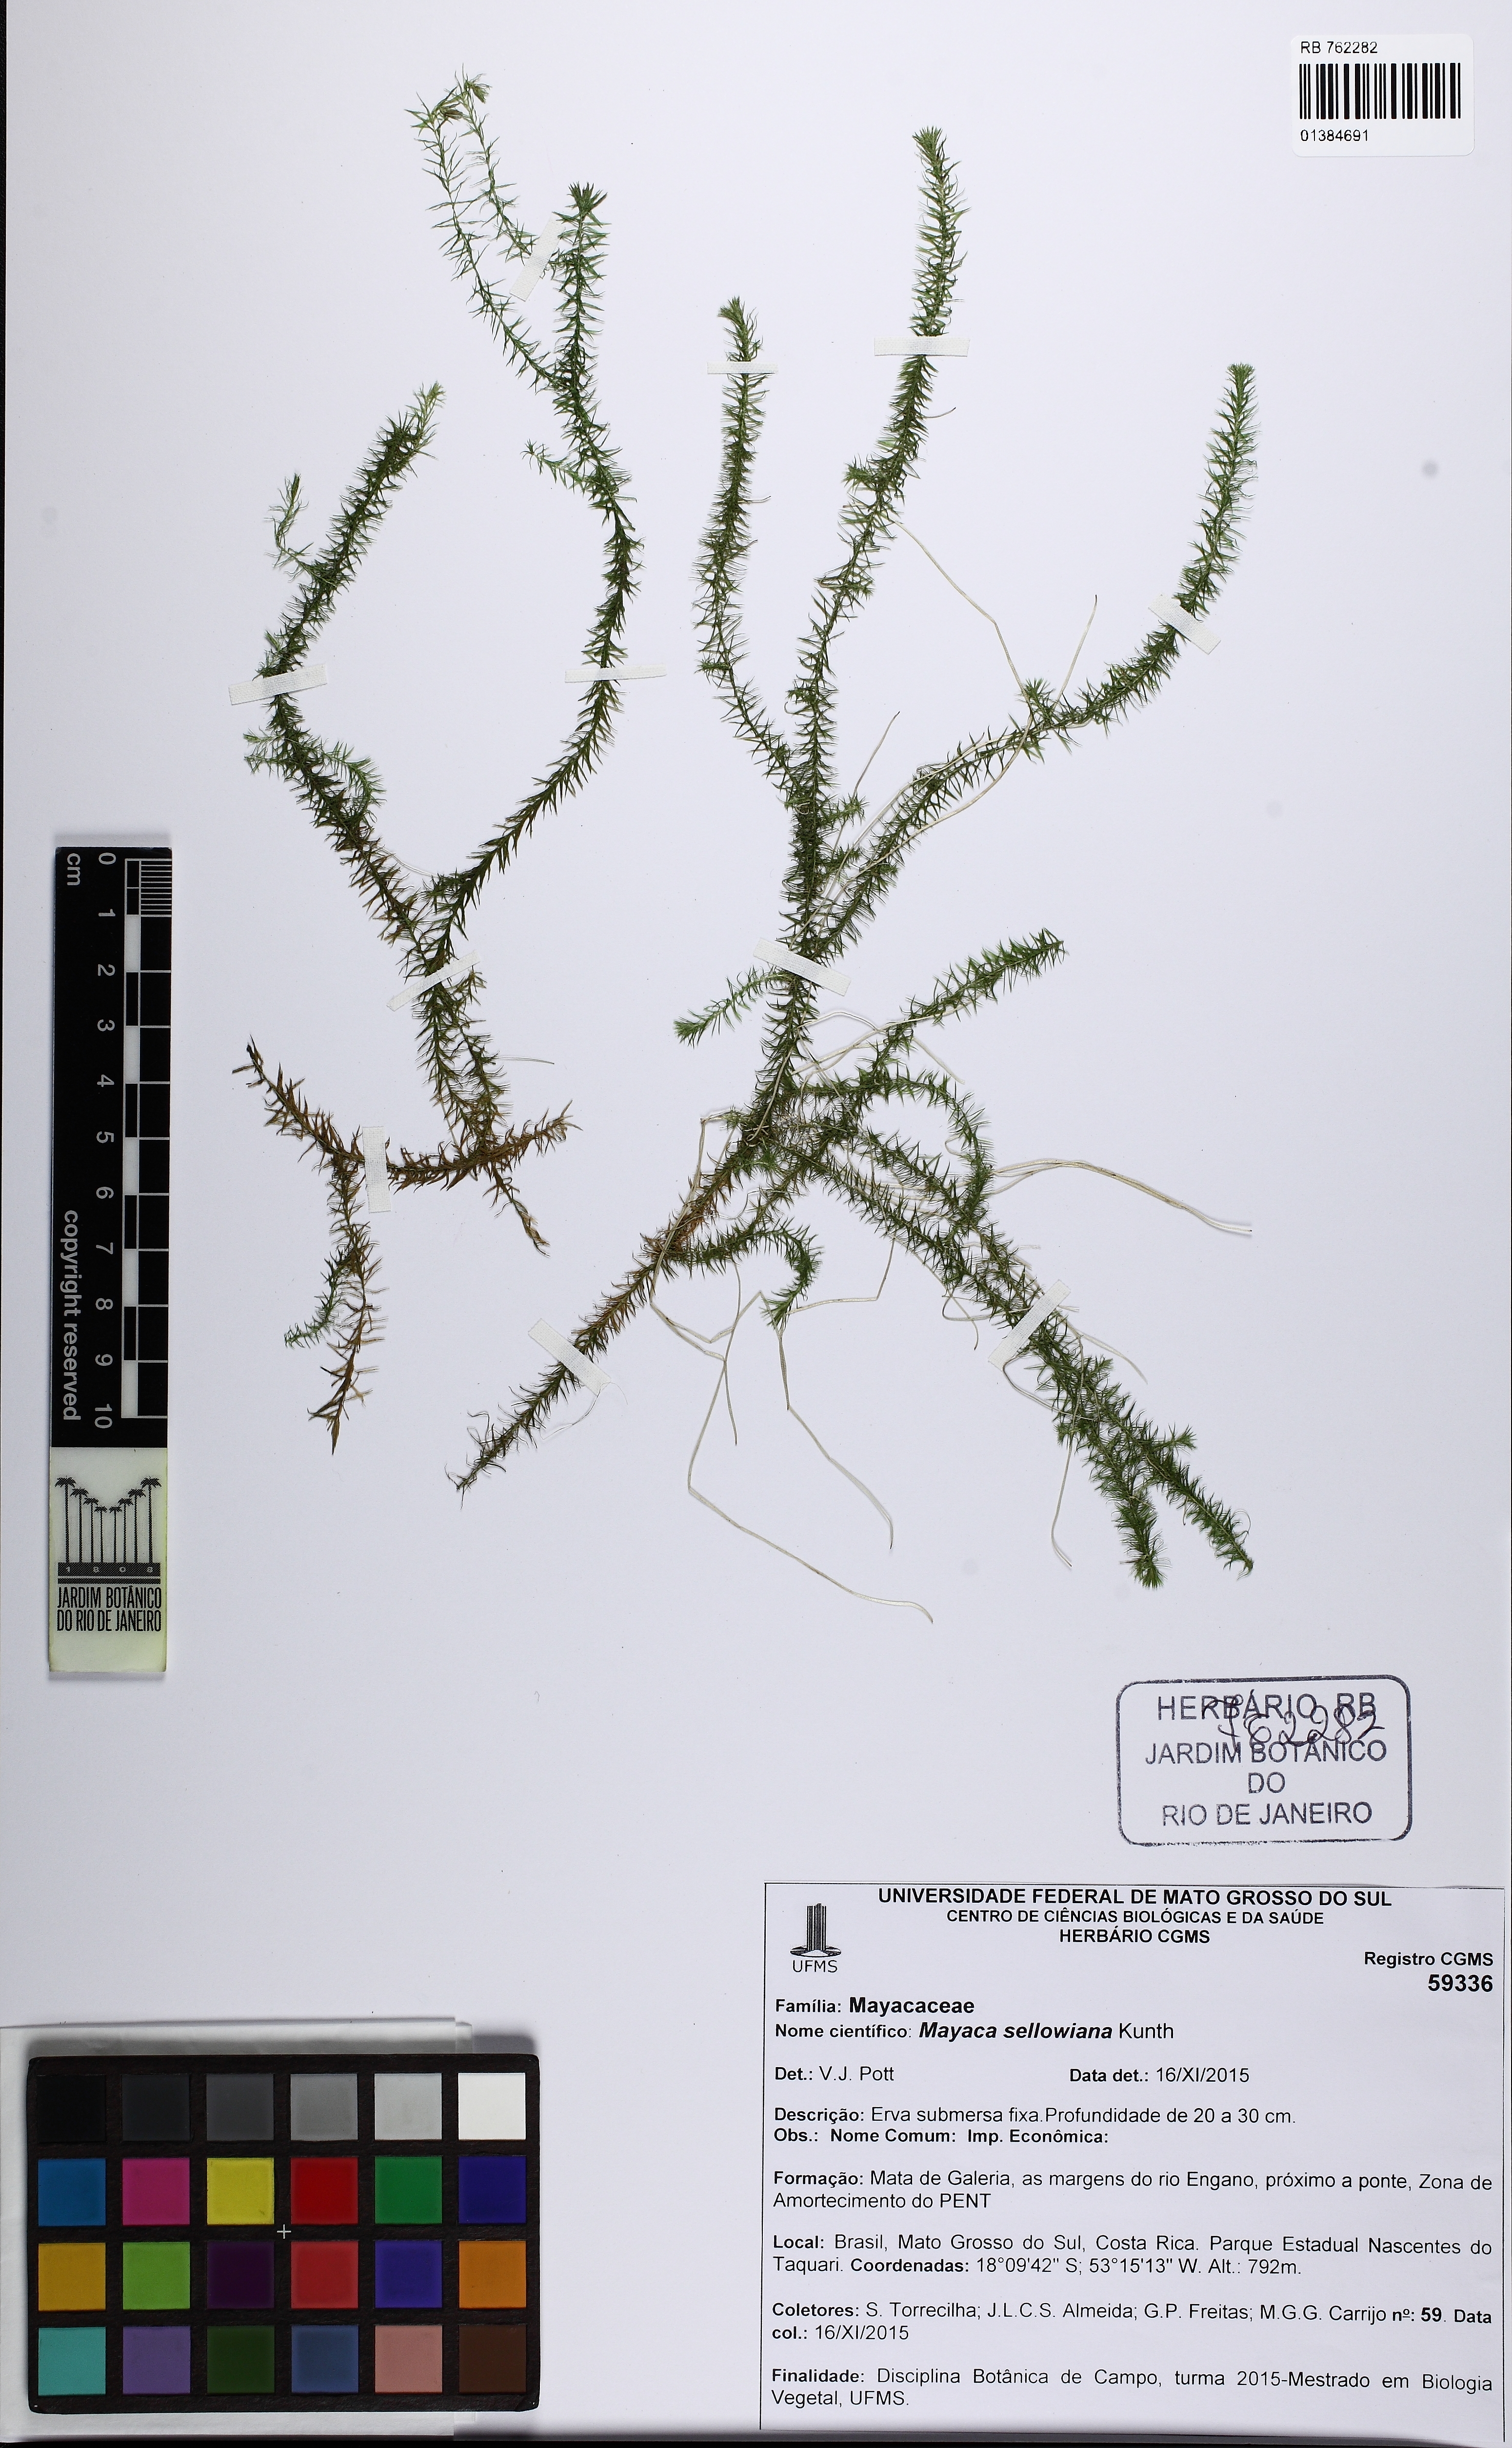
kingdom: Plantae
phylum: Tracheophyta
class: Liliopsida
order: Poales
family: Mayacaceae
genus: Mayaca
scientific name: Mayaca sellowiana
